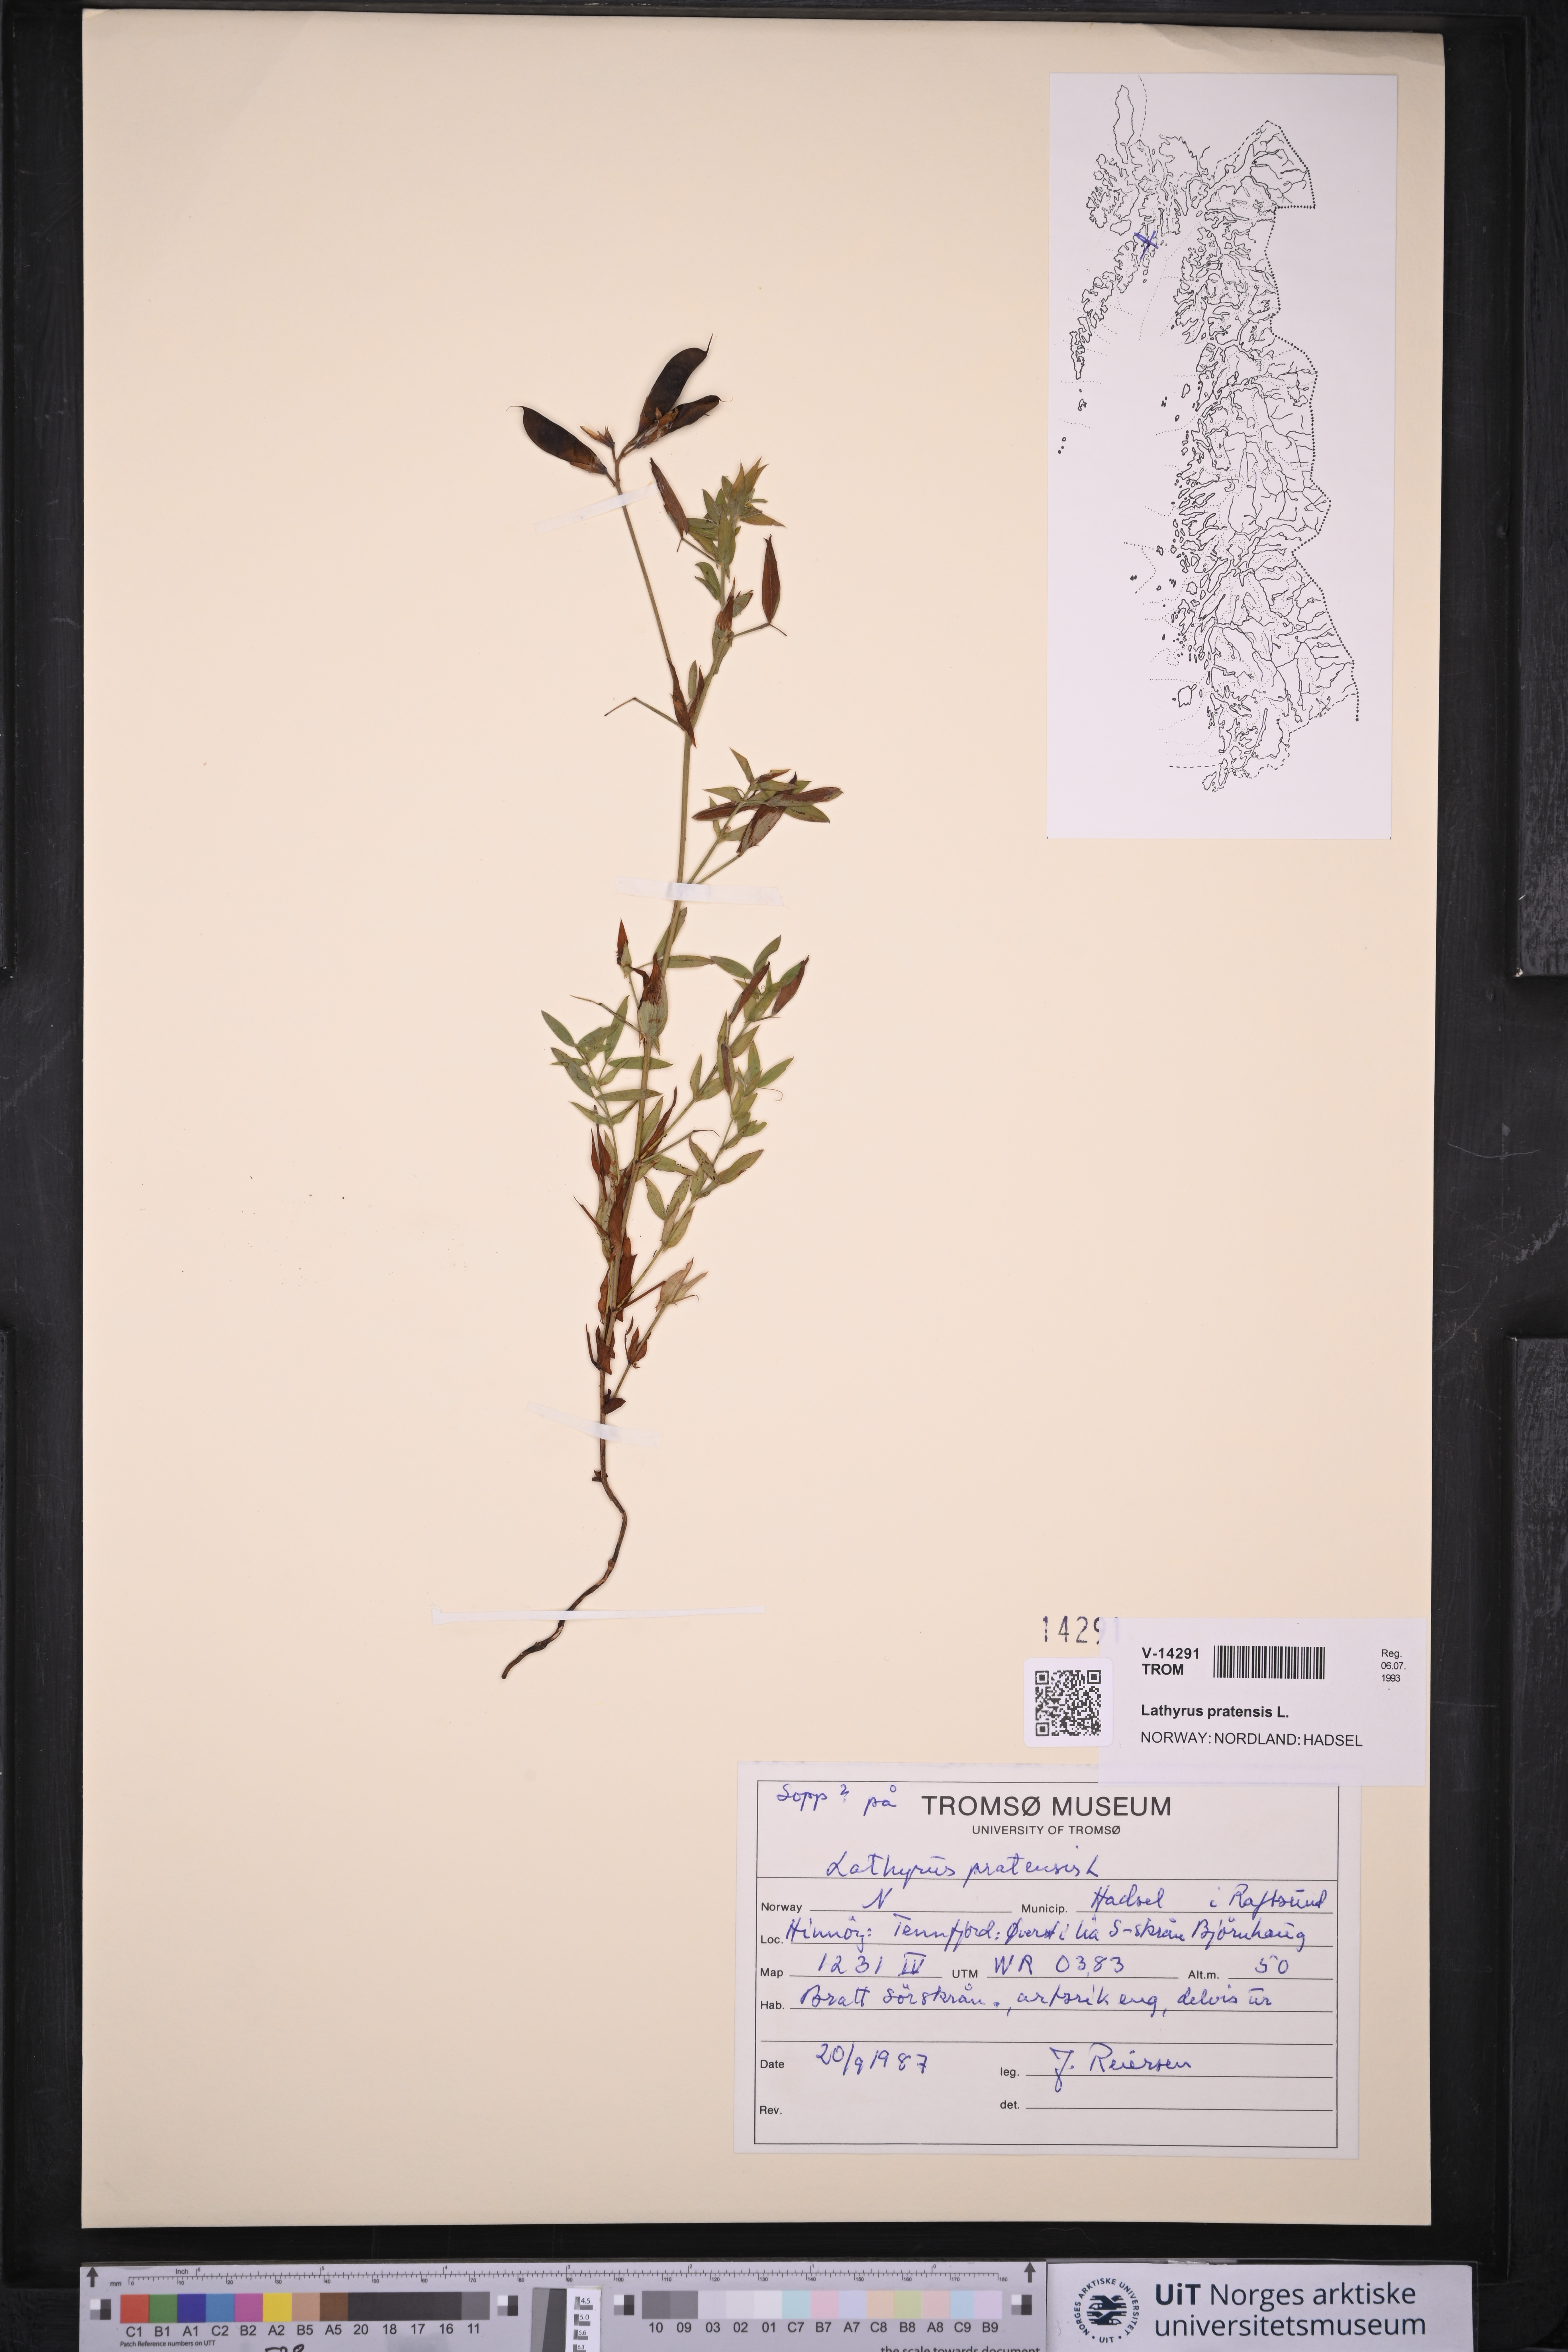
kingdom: Plantae
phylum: Tracheophyta
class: Magnoliopsida
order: Fabales
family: Fabaceae
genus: Lathyrus
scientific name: Lathyrus pratensis
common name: Meadow vetchling
